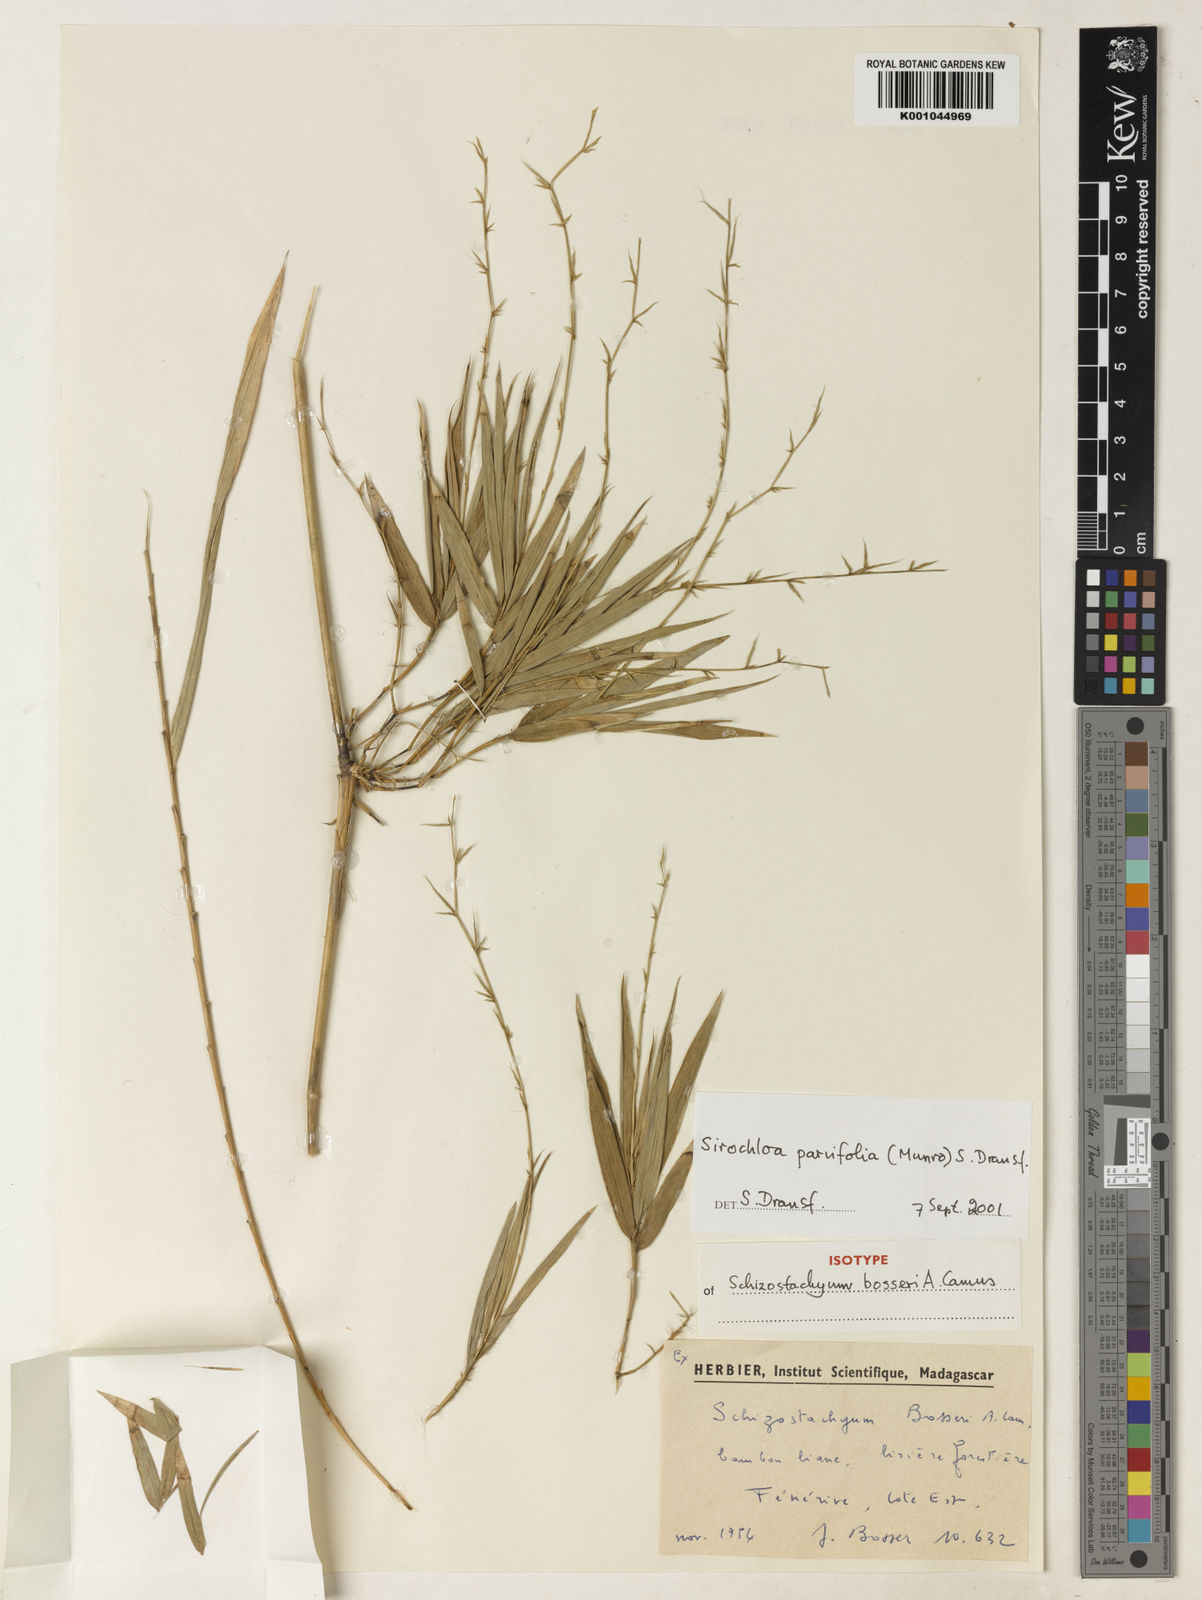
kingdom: Plantae
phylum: Tracheophyta
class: Liliopsida
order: Poales
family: Poaceae
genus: Sirochloa
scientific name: Sirochloa parvifolia
